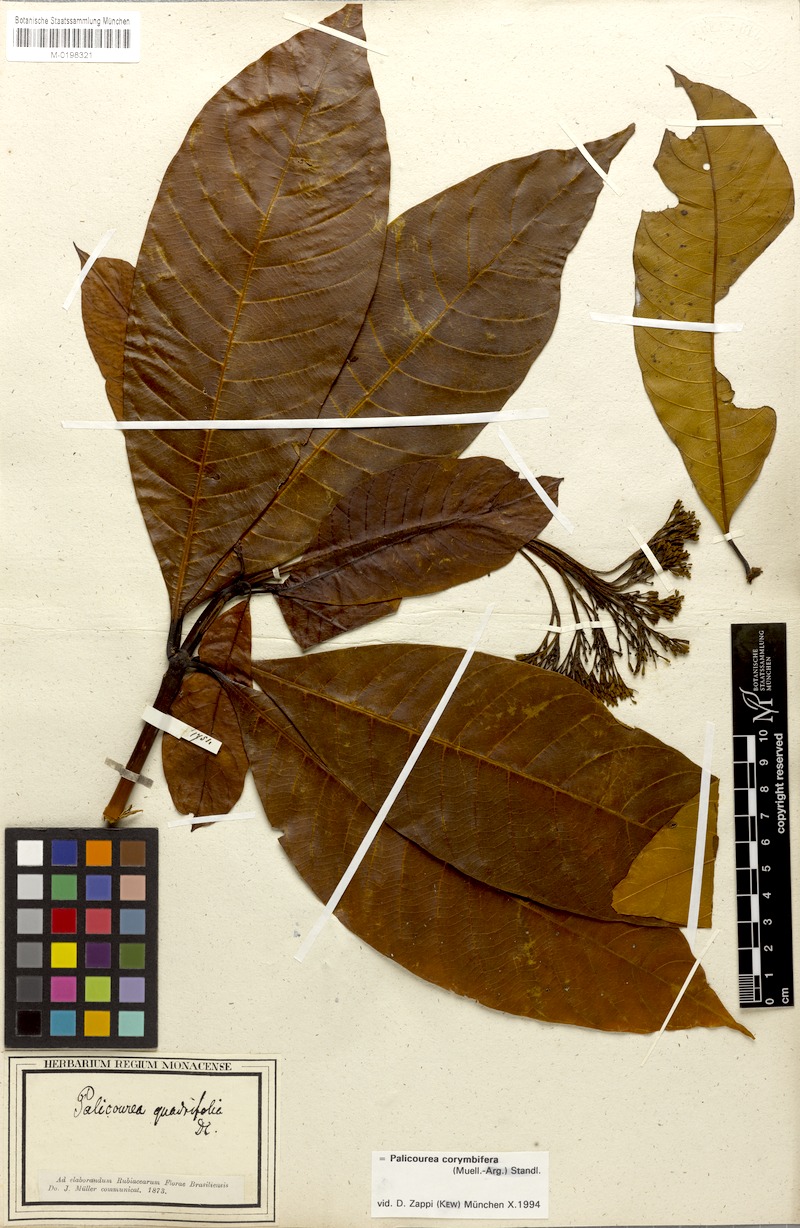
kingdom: Plantae
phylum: Tracheophyta
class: Magnoliopsida
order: Gentianales
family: Rubiaceae
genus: Palicourea
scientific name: Palicourea corymbifera
